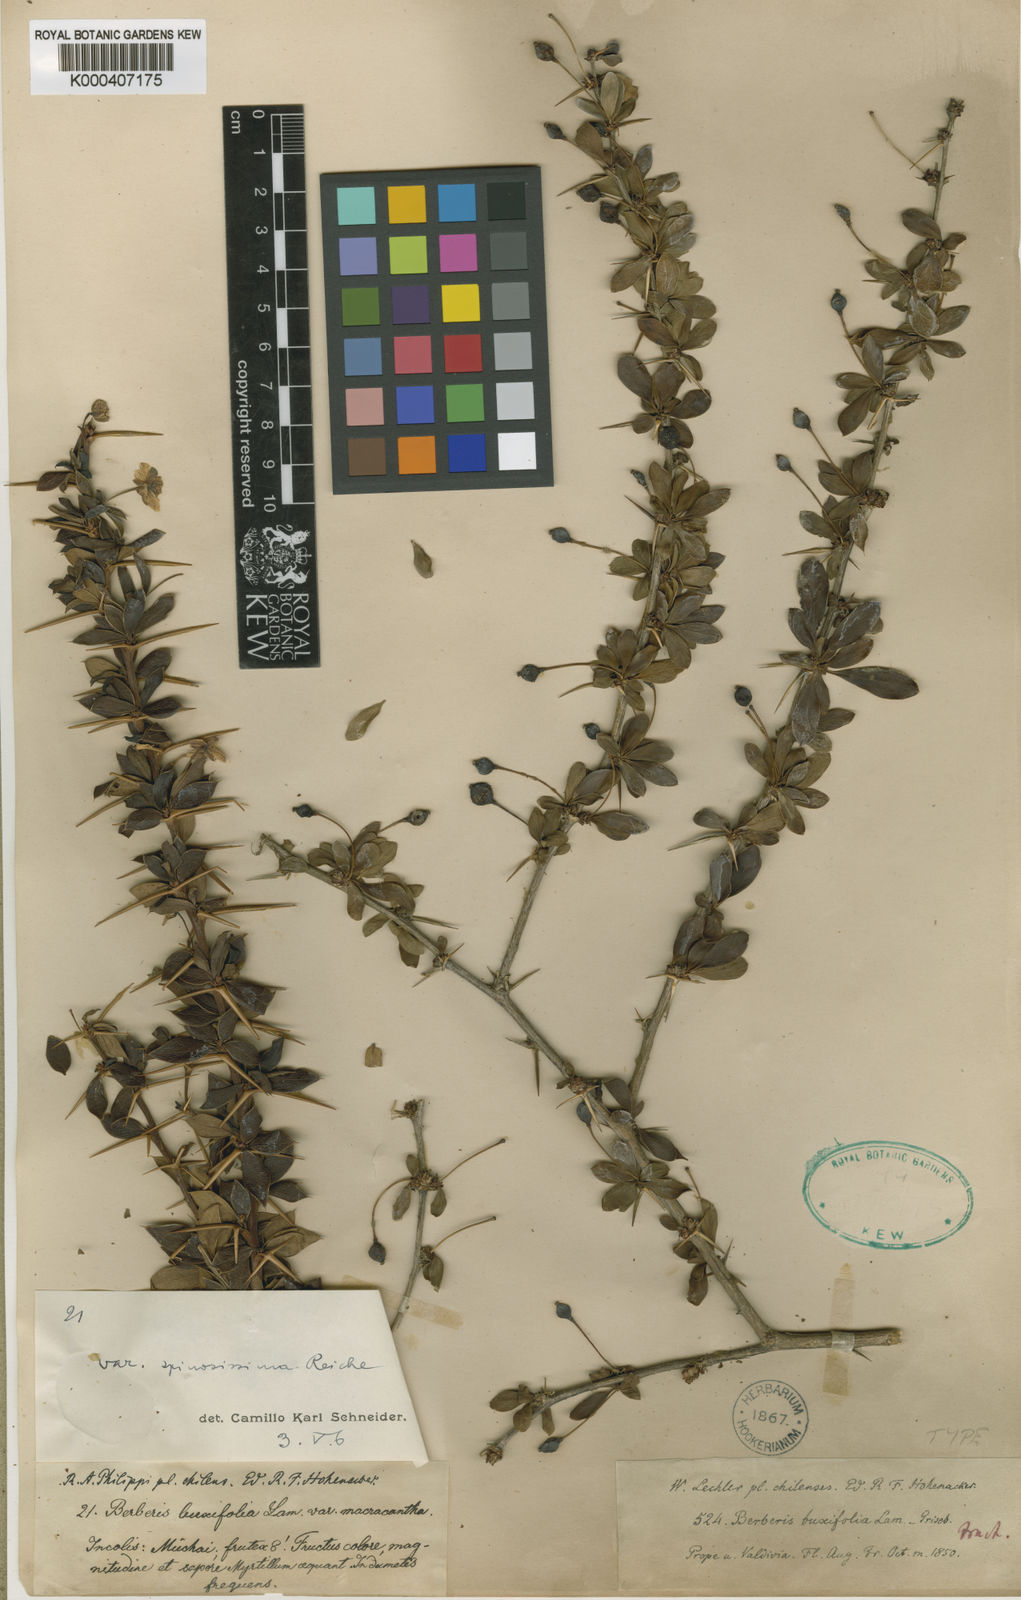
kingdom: Plantae
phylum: Tracheophyta
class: Magnoliopsida
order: Ranunculales
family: Berberidaceae
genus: Berberis
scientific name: Berberis microphylla
